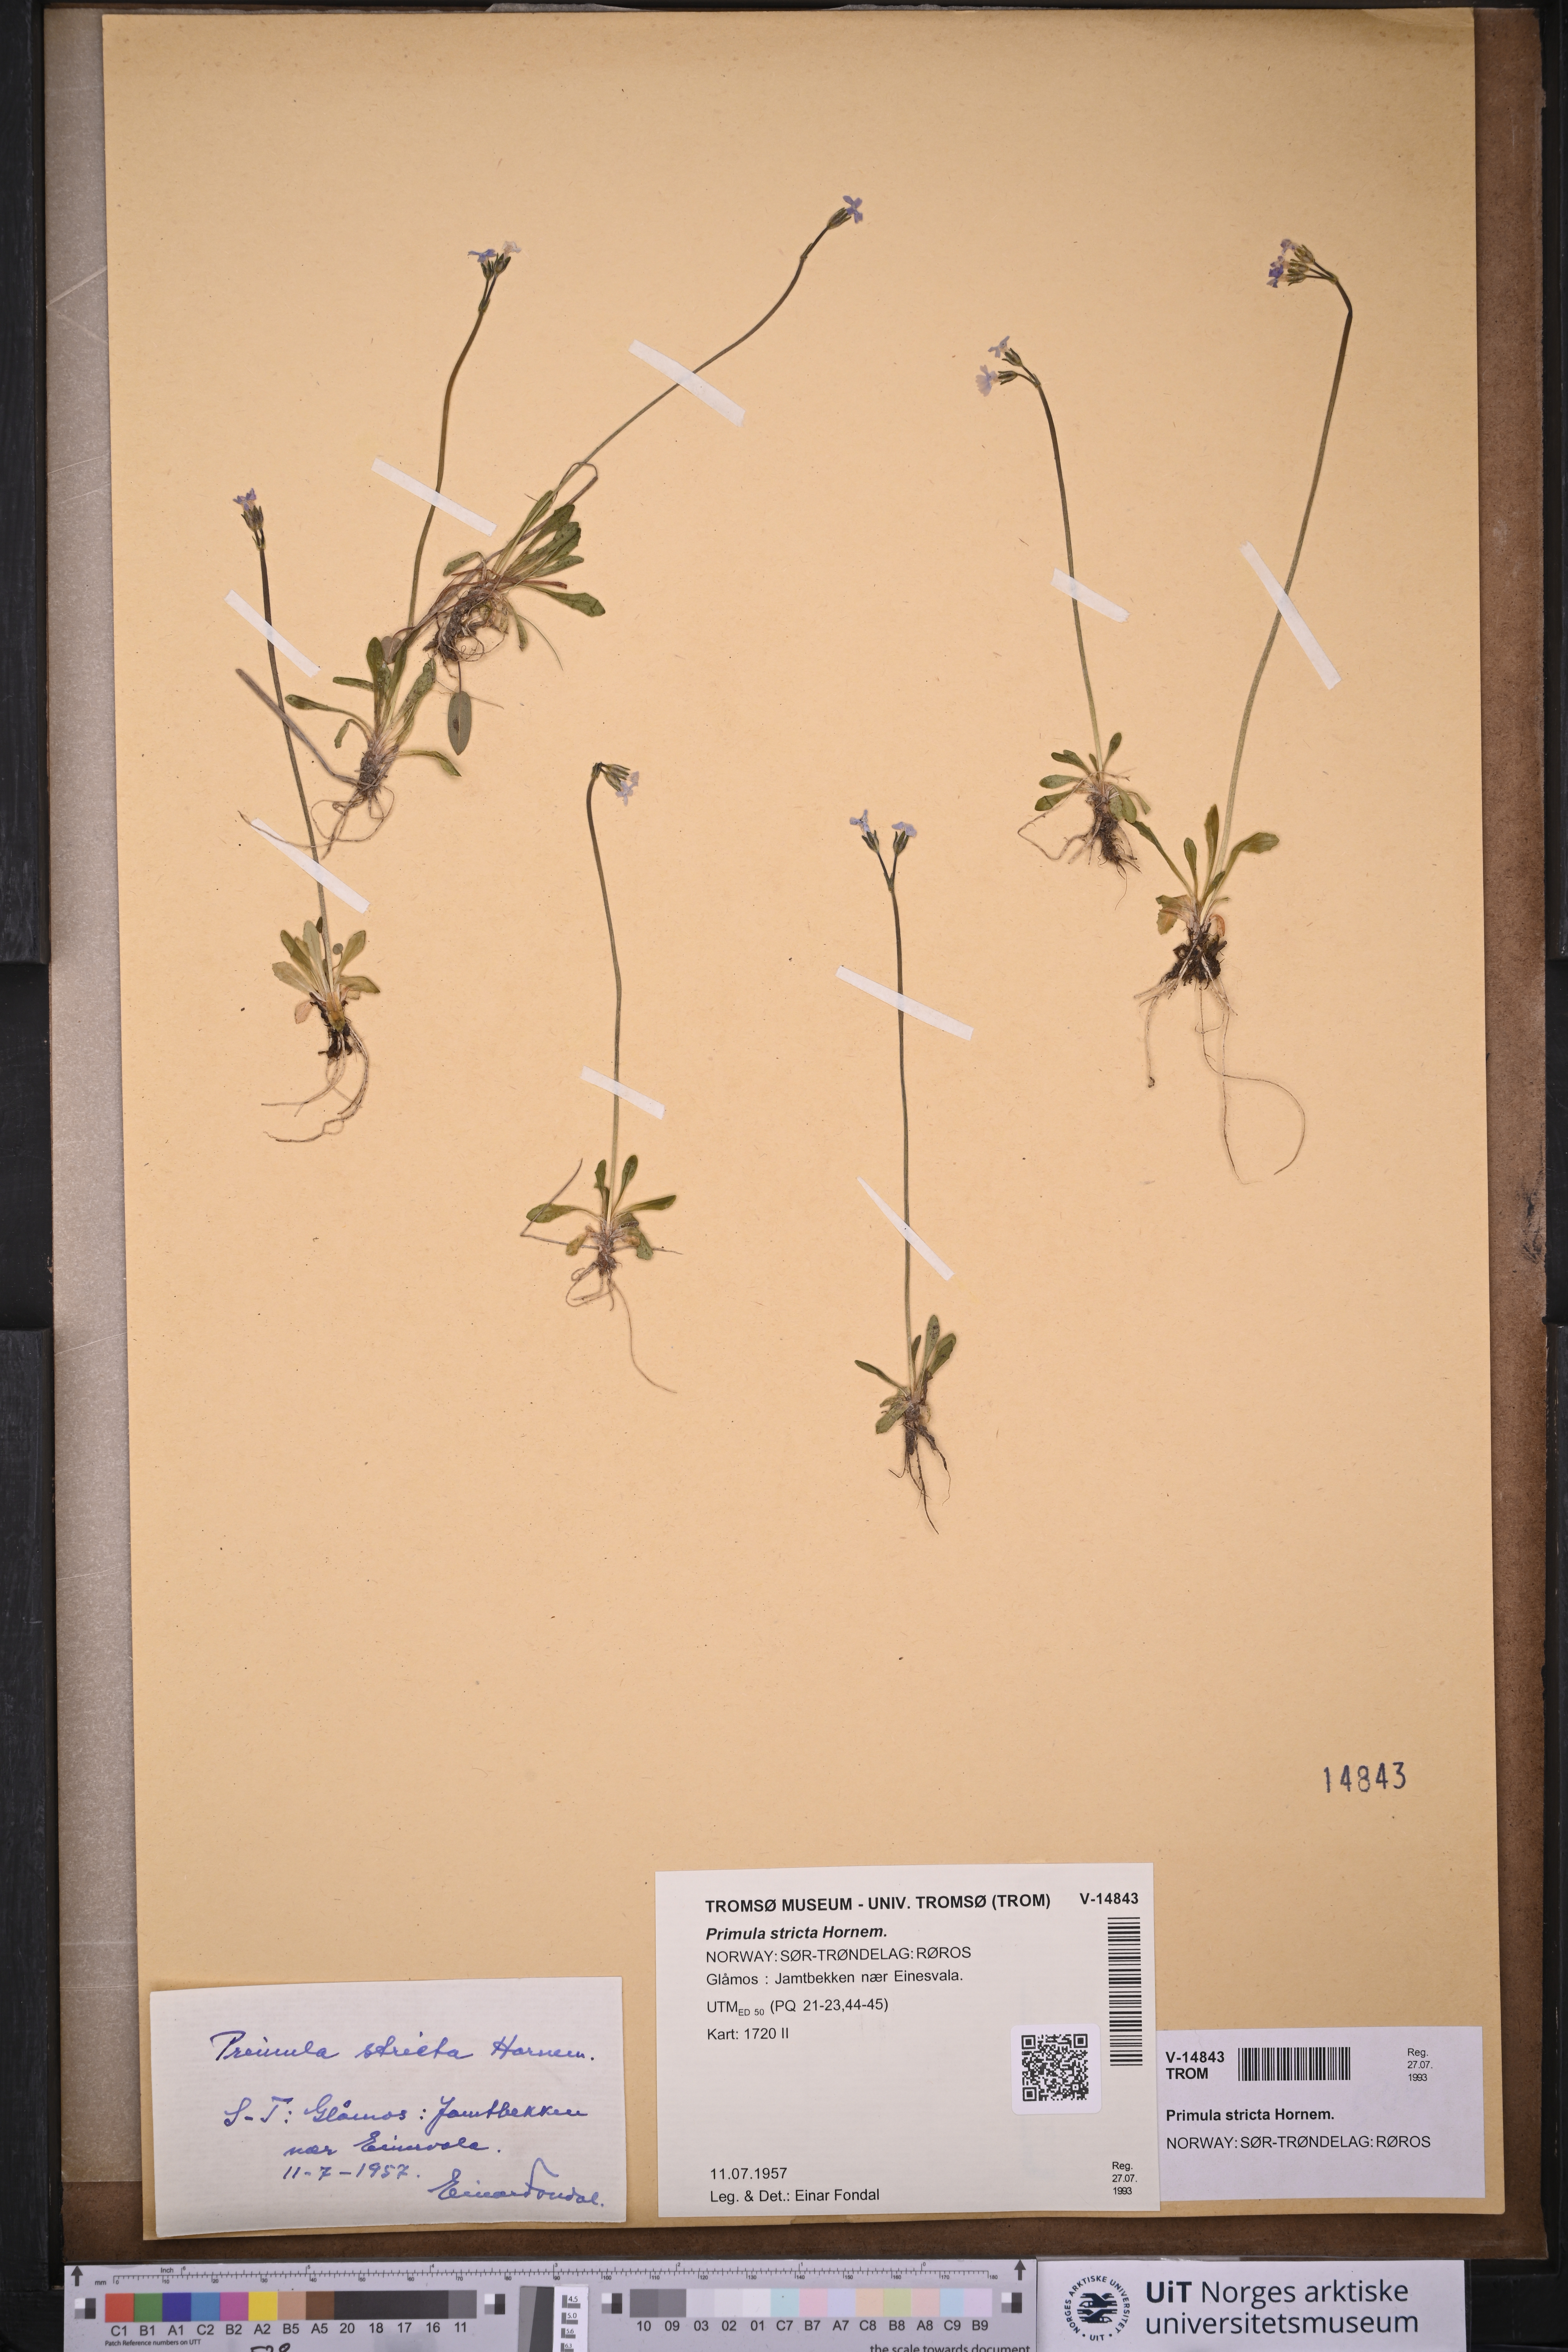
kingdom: Plantae
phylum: Tracheophyta
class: Magnoliopsida
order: Ericales
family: Primulaceae
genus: Primula
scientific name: Primula stricta
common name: Coastal primrose
